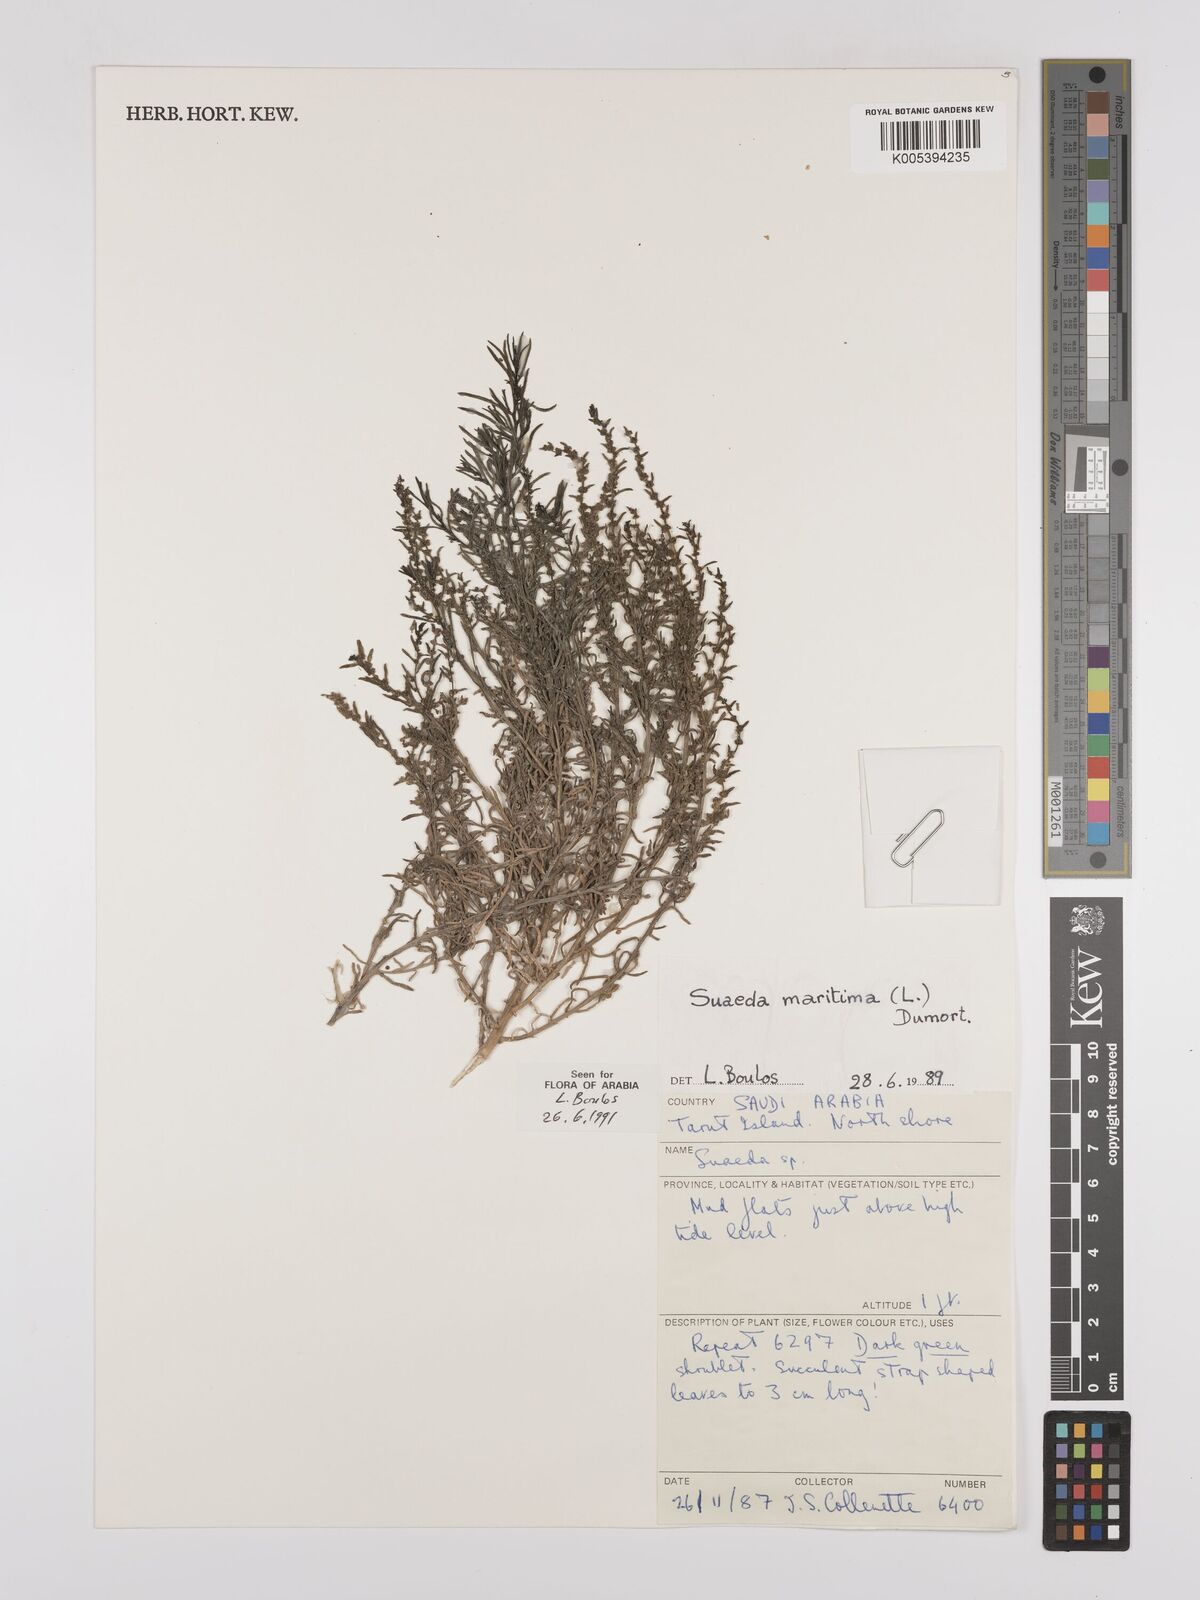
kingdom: Plantae
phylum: Tracheophyta
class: Magnoliopsida
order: Caryophyllales
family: Amaranthaceae
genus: Suaeda
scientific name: Suaeda
